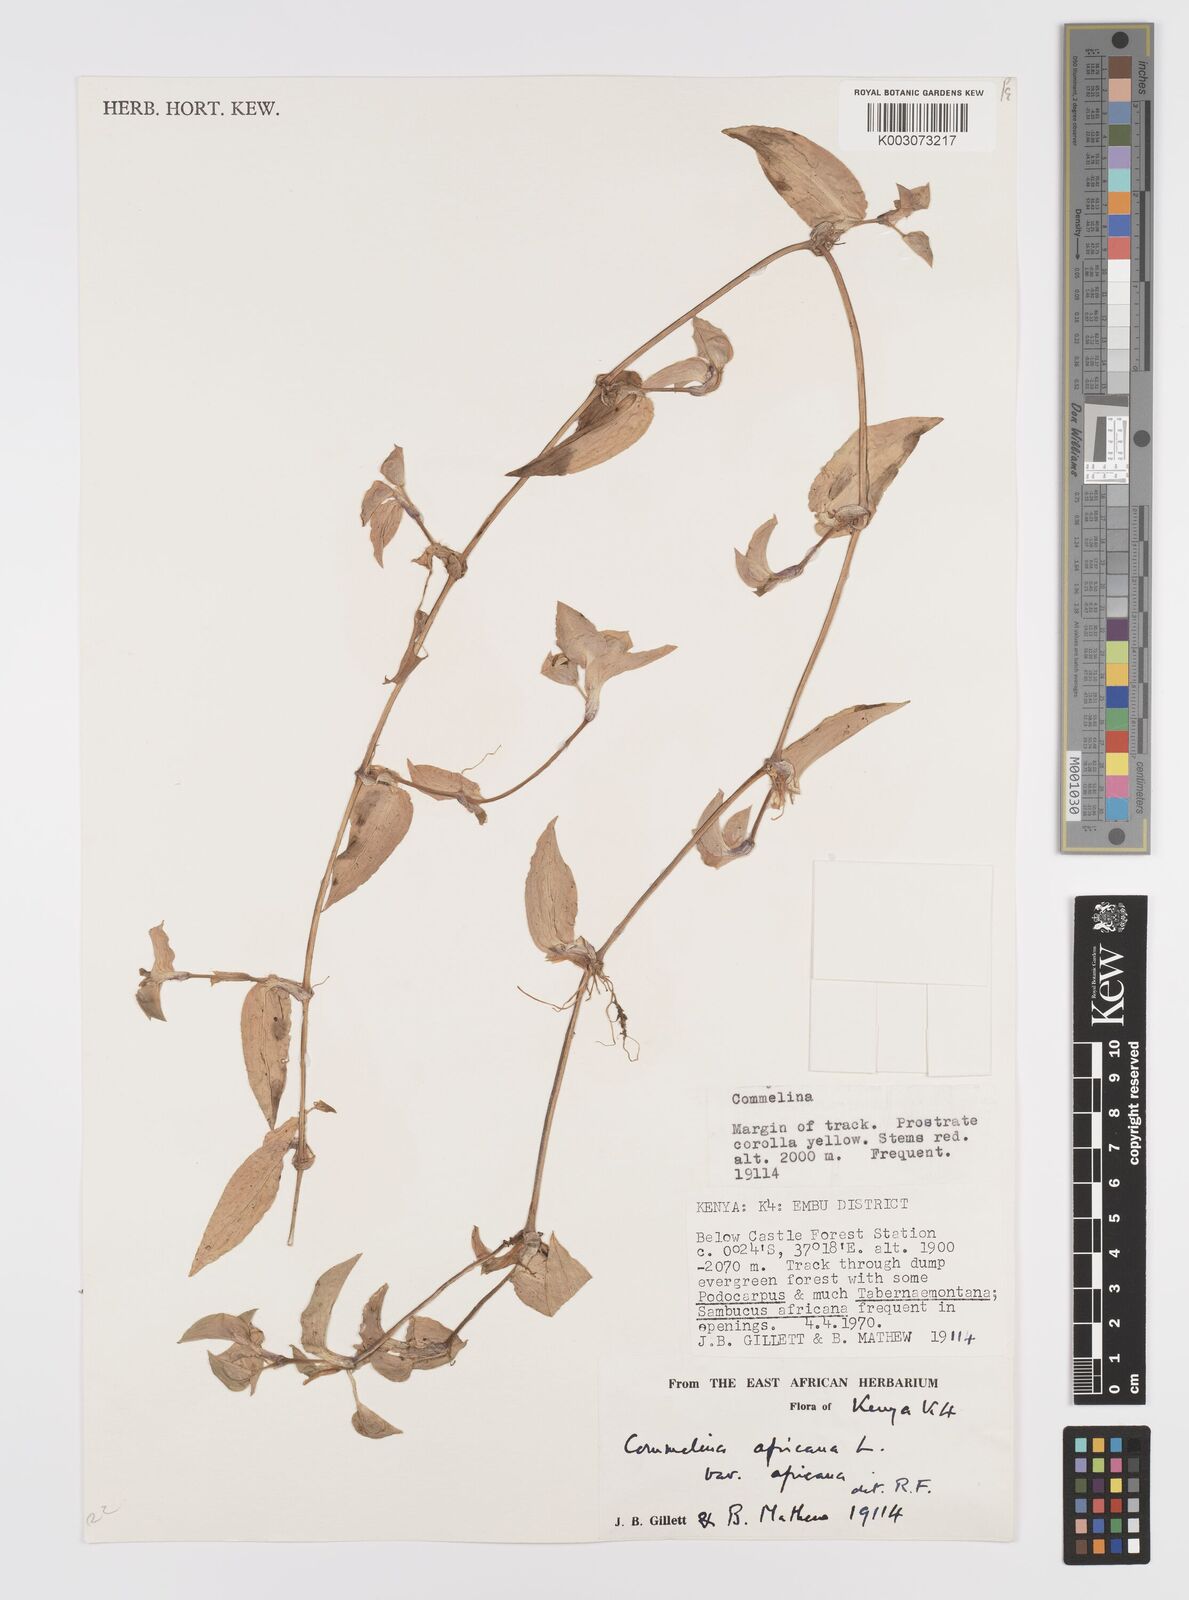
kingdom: Plantae
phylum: Tracheophyta
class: Liliopsida
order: Commelinales
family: Commelinaceae
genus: Commelina
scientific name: Commelina africana
